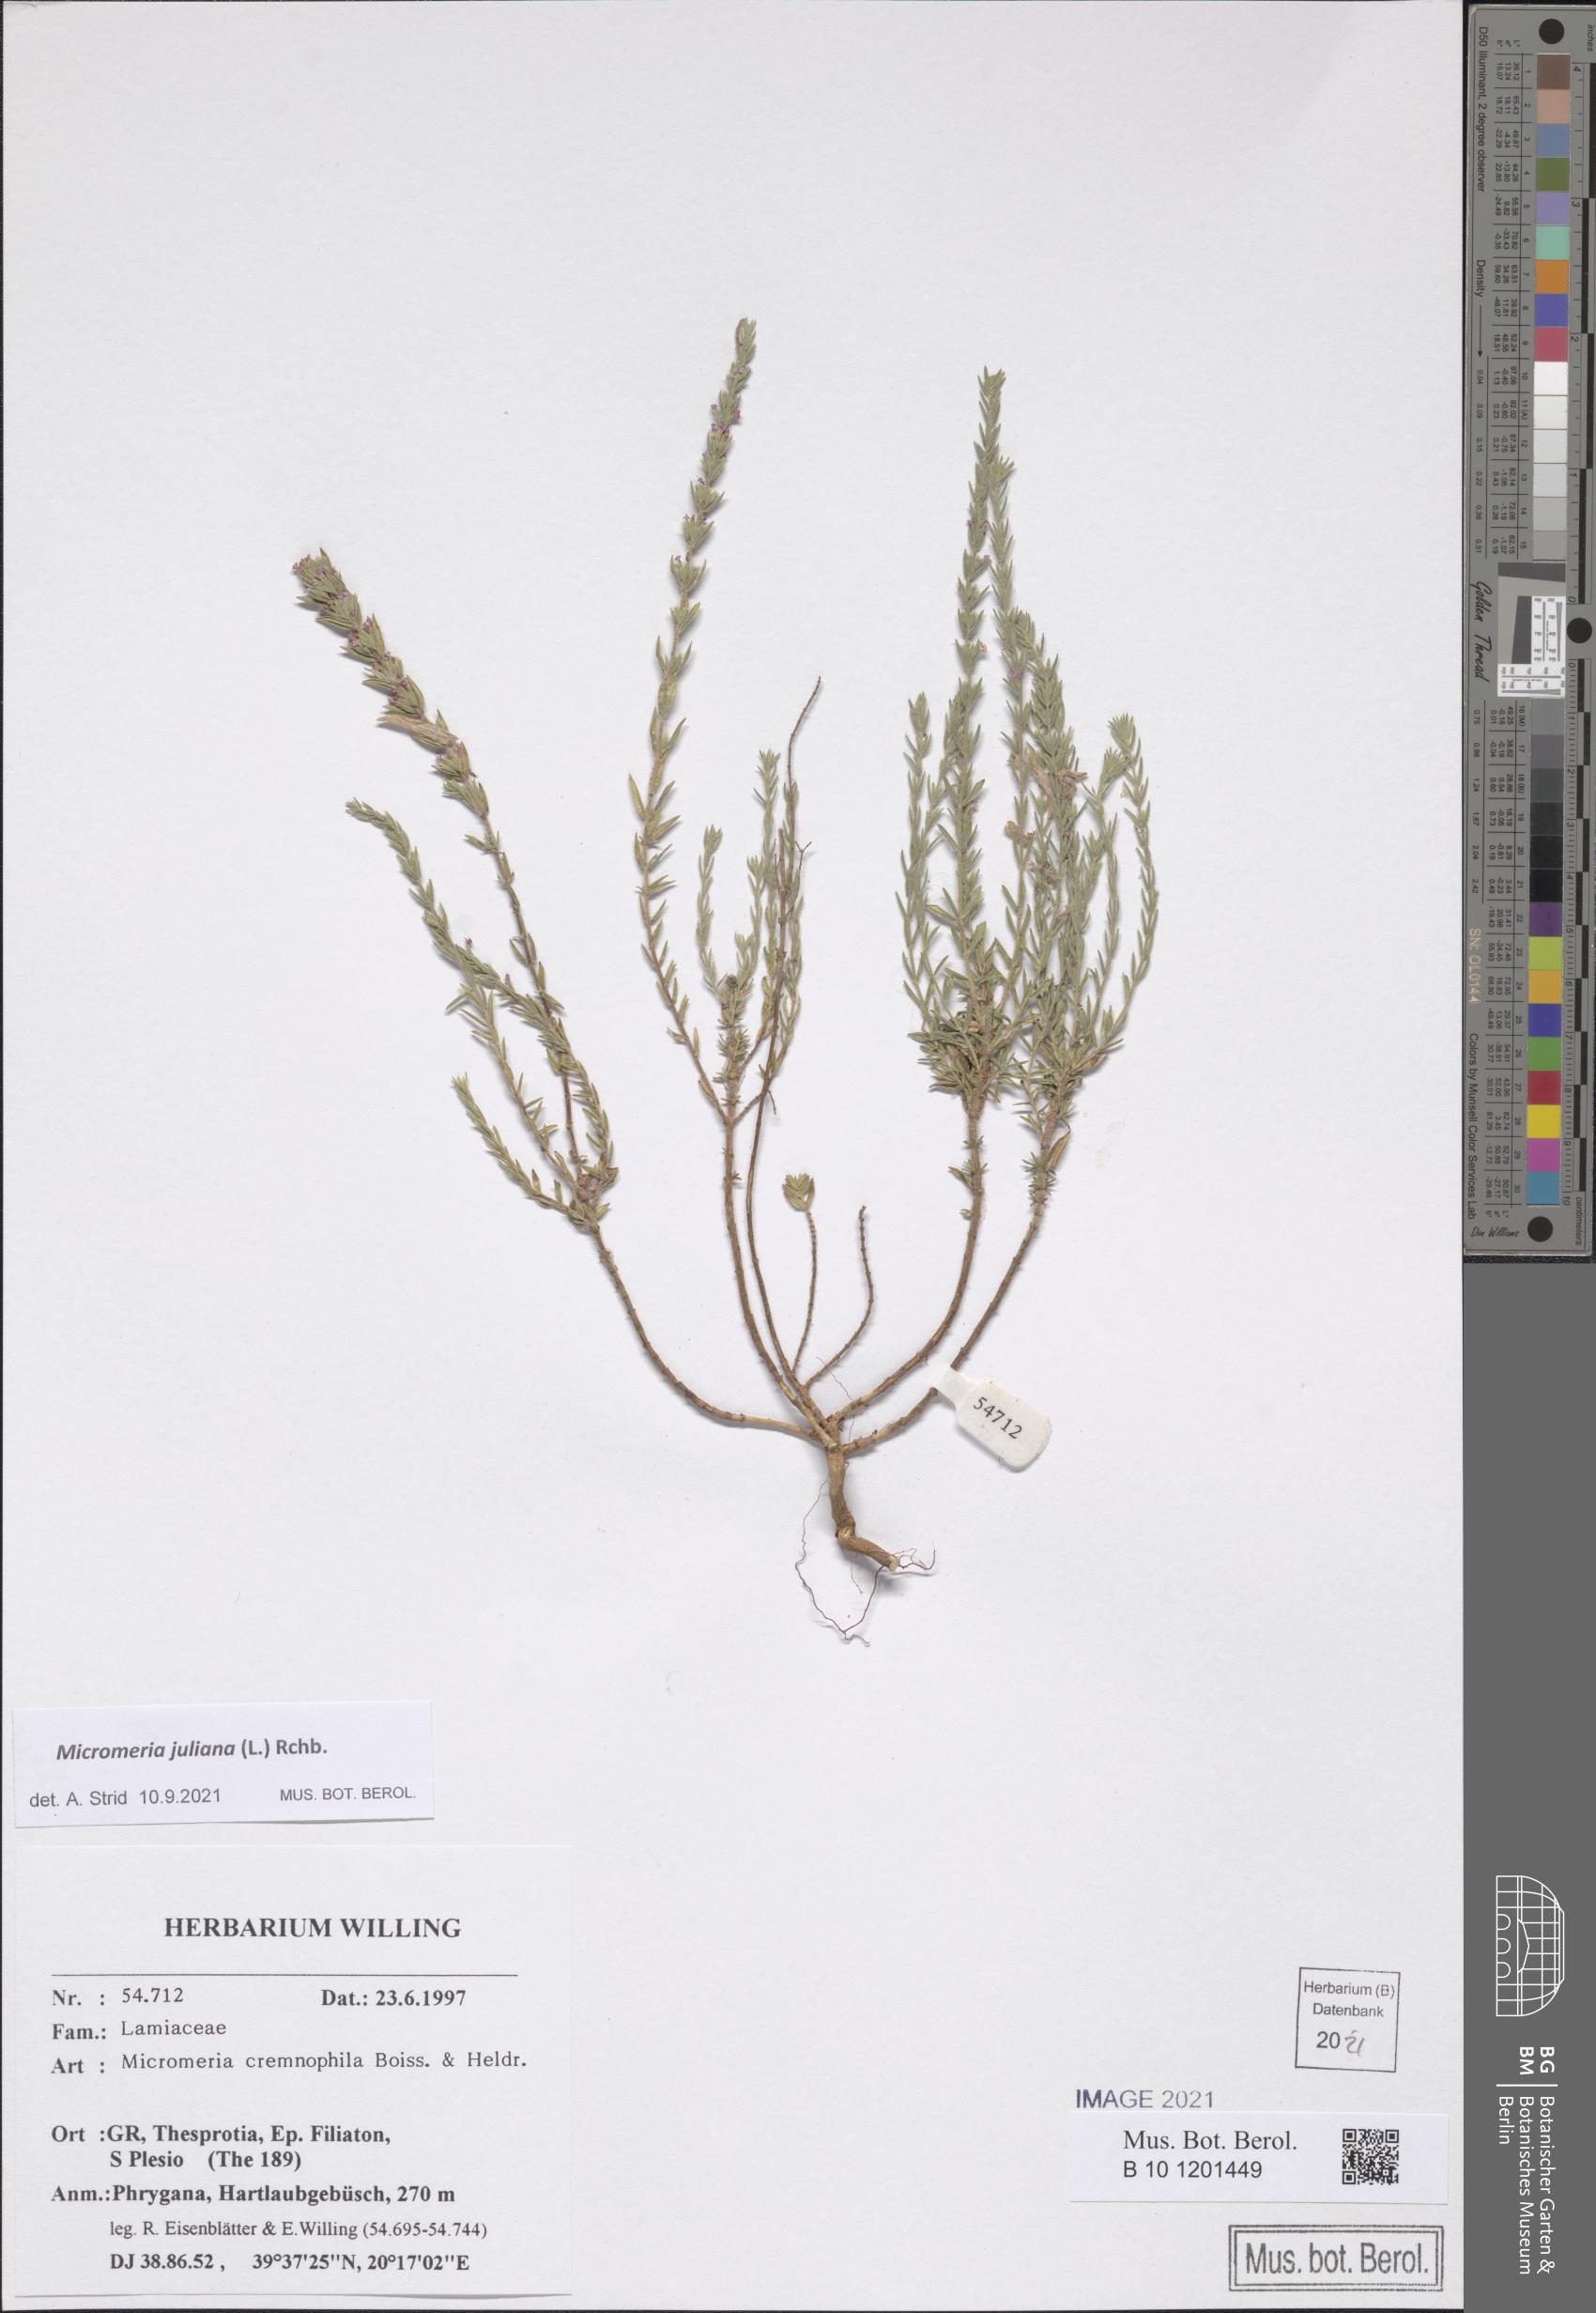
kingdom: Plantae
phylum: Tracheophyta
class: Magnoliopsida
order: Lamiales
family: Lamiaceae
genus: Micromeria
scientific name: Micromeria juliana
